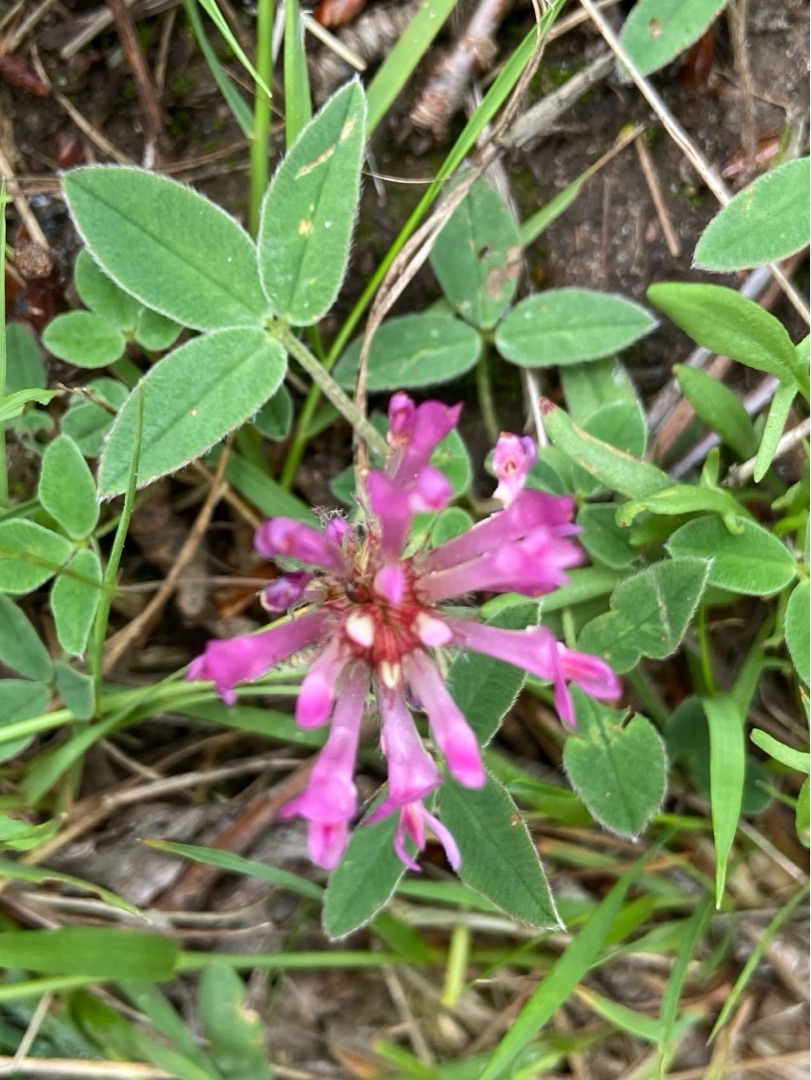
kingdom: Plantae
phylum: Tracheophyta
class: Magnoliopsida
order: Fabales
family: Fabaceae
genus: Trifolium
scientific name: Trifolium medium
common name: Bugtet kløver
